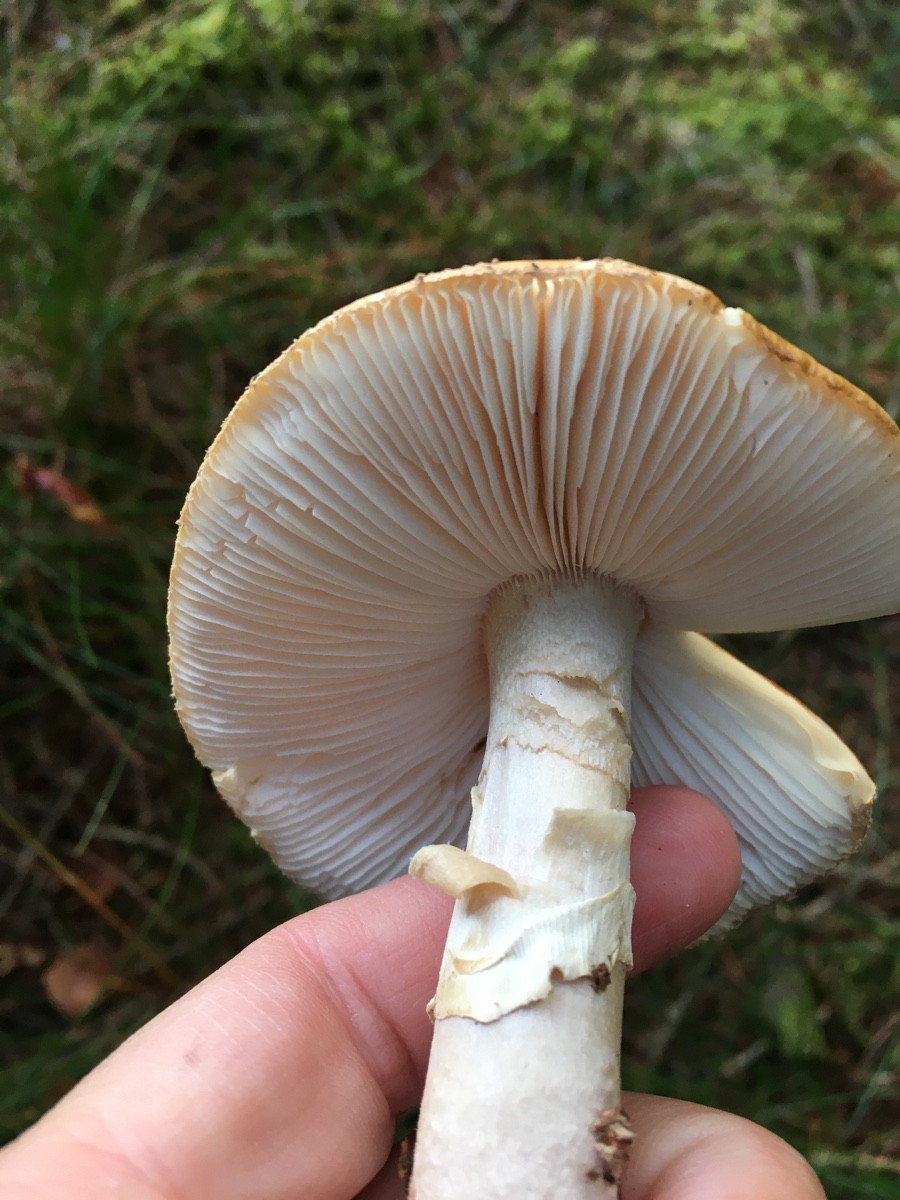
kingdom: Fungi
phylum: Basidiomycota
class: Agaricomycetes
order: Agaricales
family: Amanitaceae
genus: Amanita
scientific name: Amanita rubescens
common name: rødmende fluesvamp
